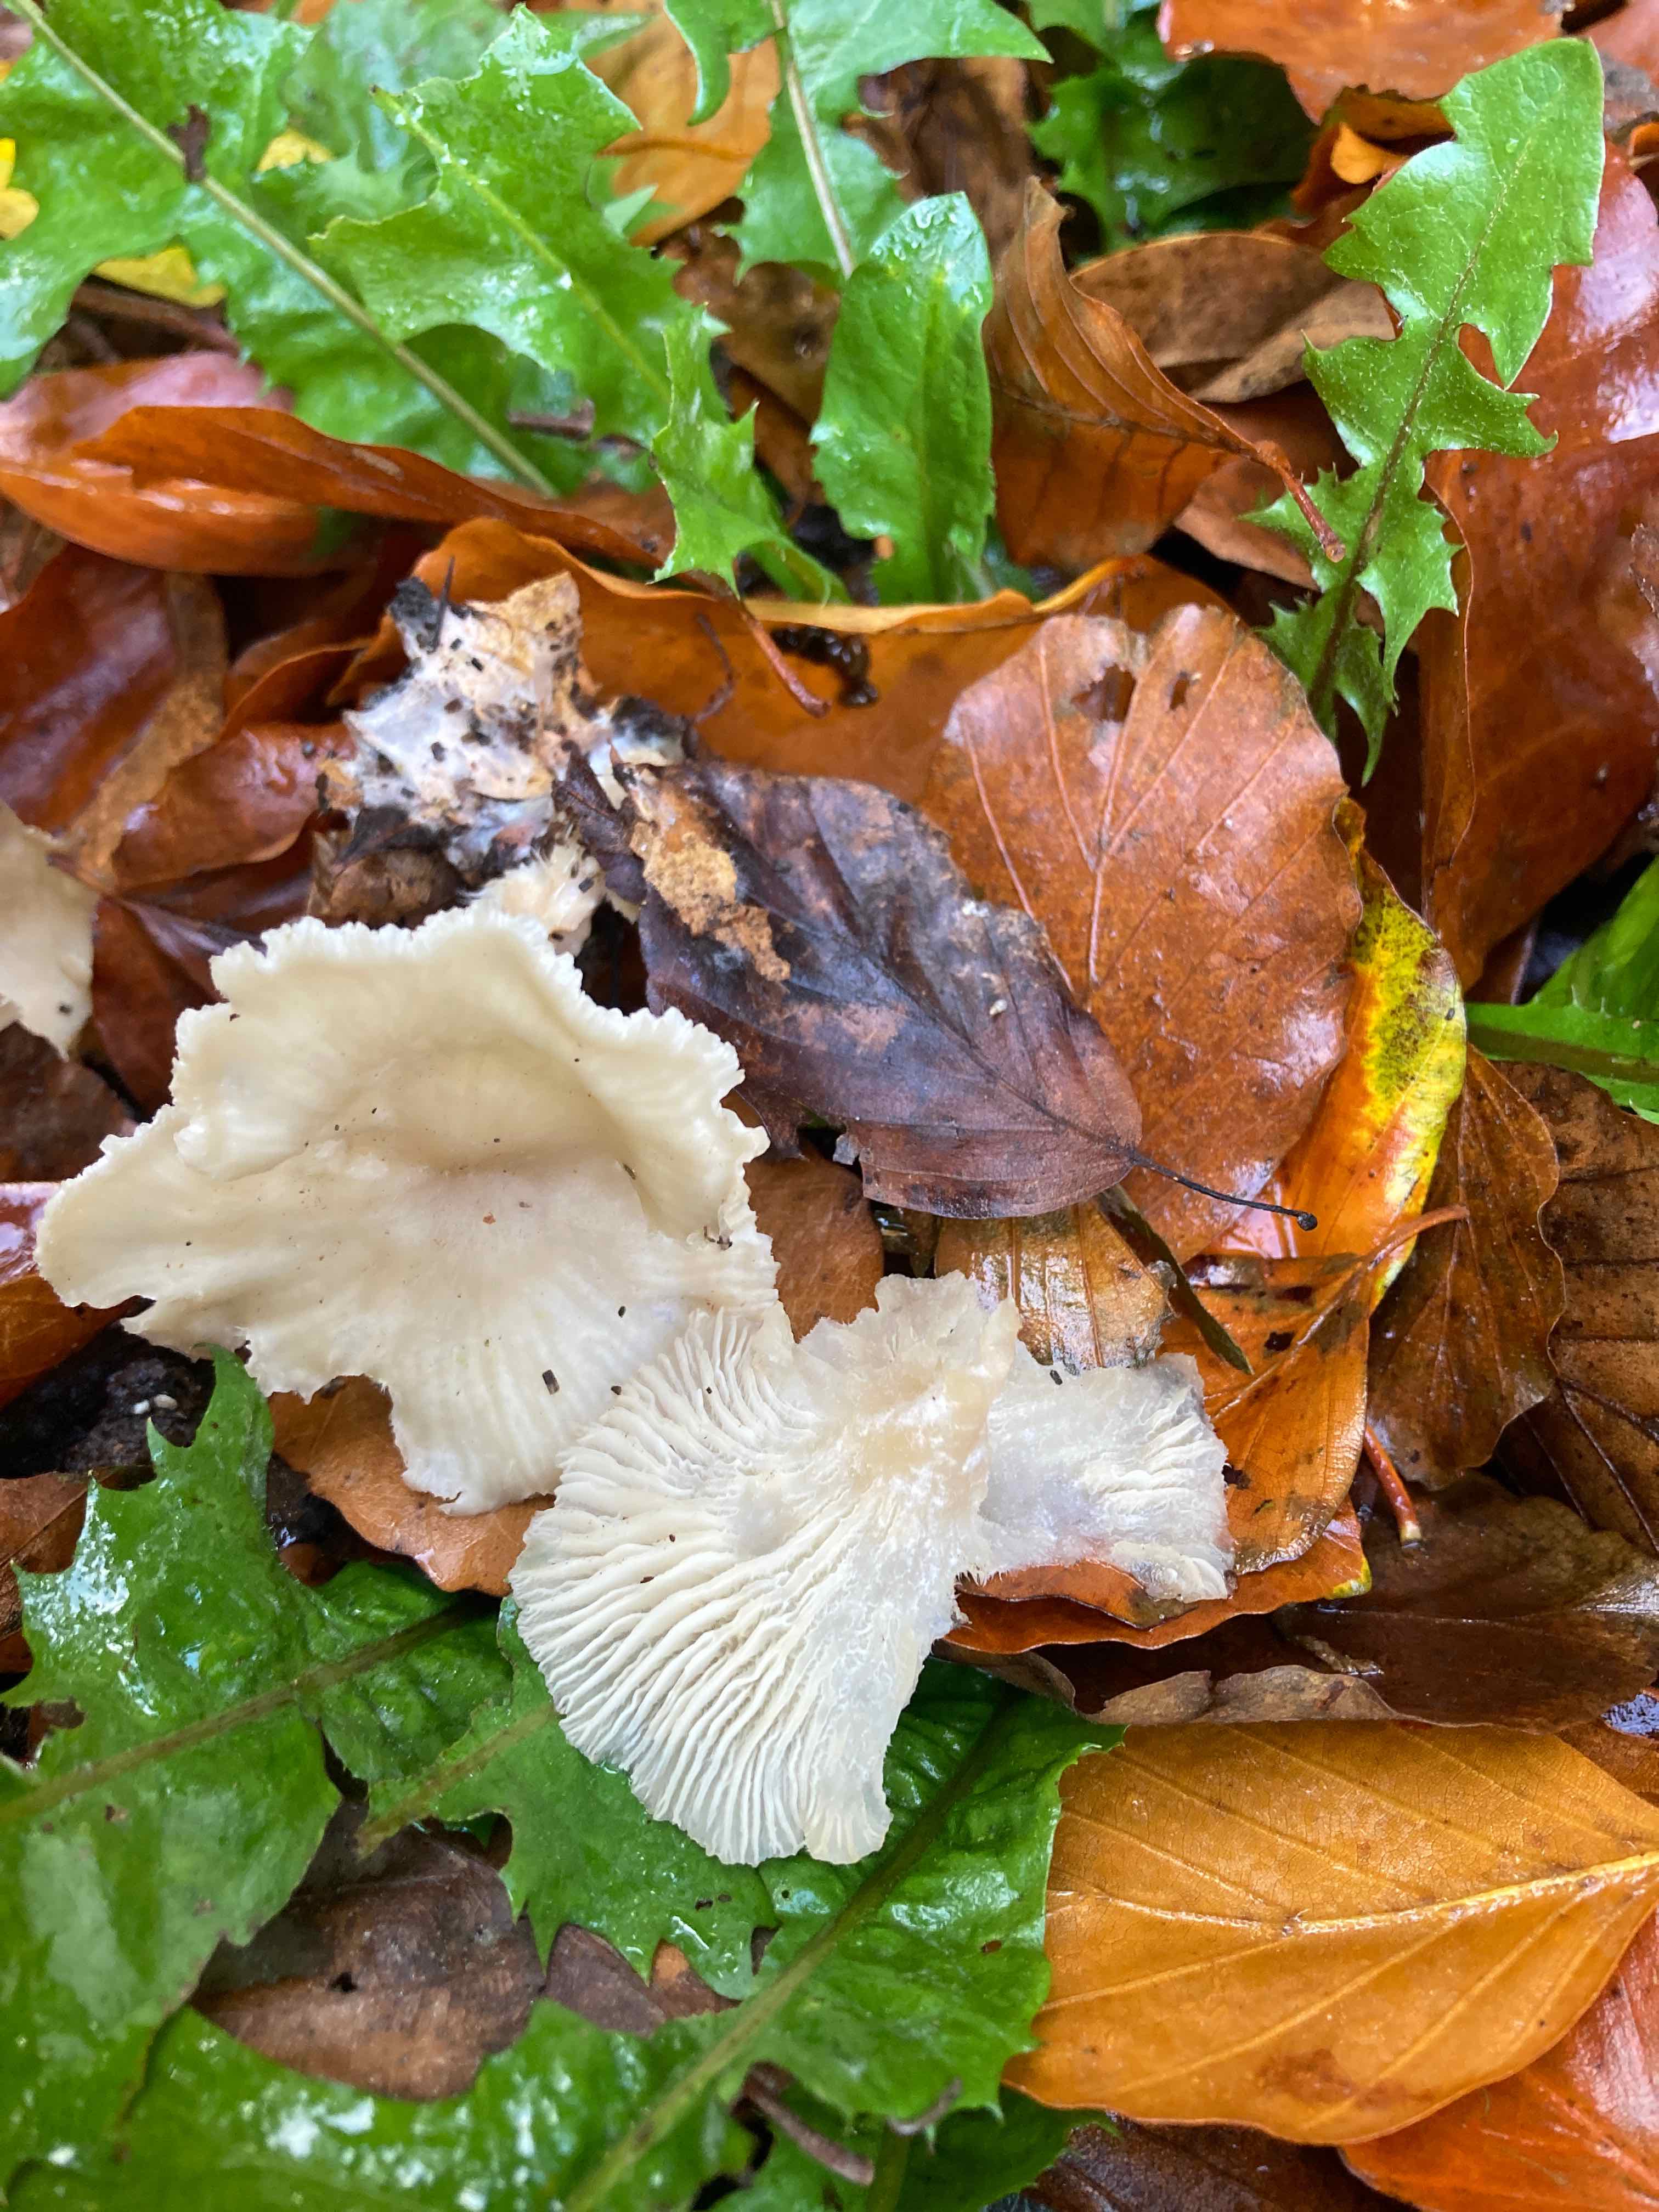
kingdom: Fungi
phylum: Basidiomycota
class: Agaricomycetes
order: Agaricales
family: Tricholomataceae
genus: Clitocybe
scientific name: Clitocybe phaeophthalma
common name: stinkende tragthat
